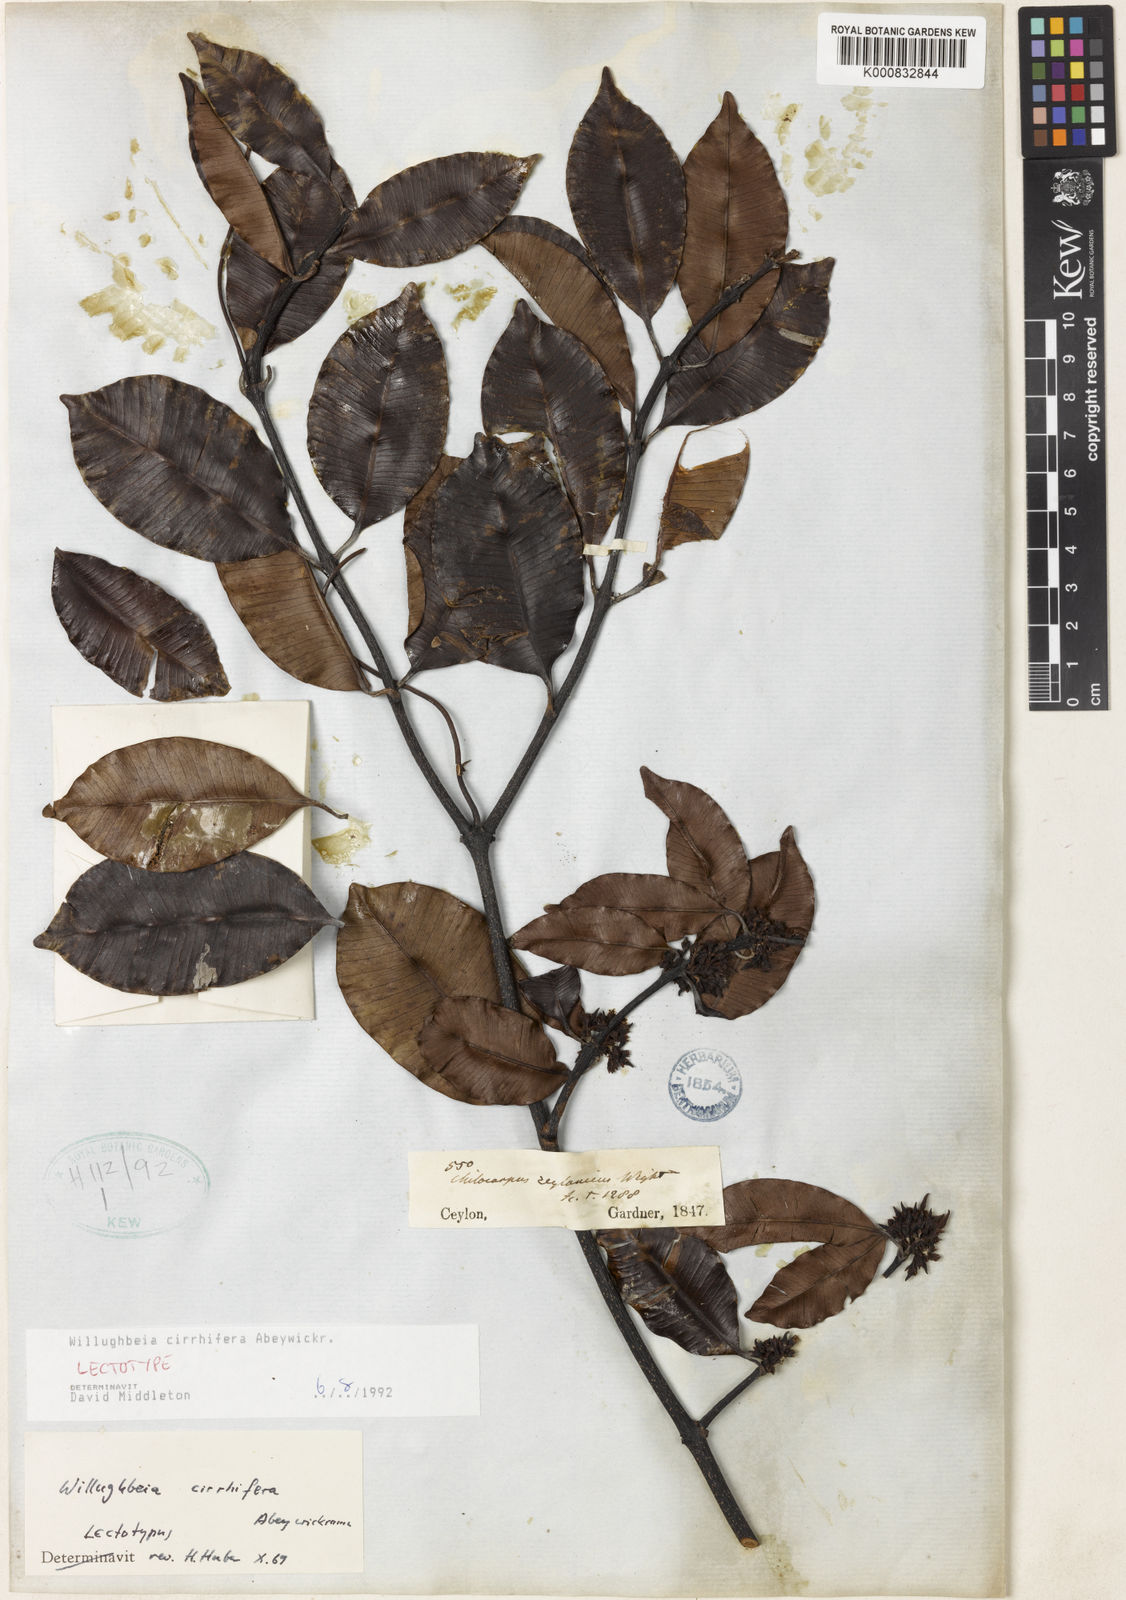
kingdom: Plantae
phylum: Tracheophyta
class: Magnoliopsida
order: Gentianales
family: Apocynaceae
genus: Willughbeia
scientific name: Willughbeia cirrhifera
